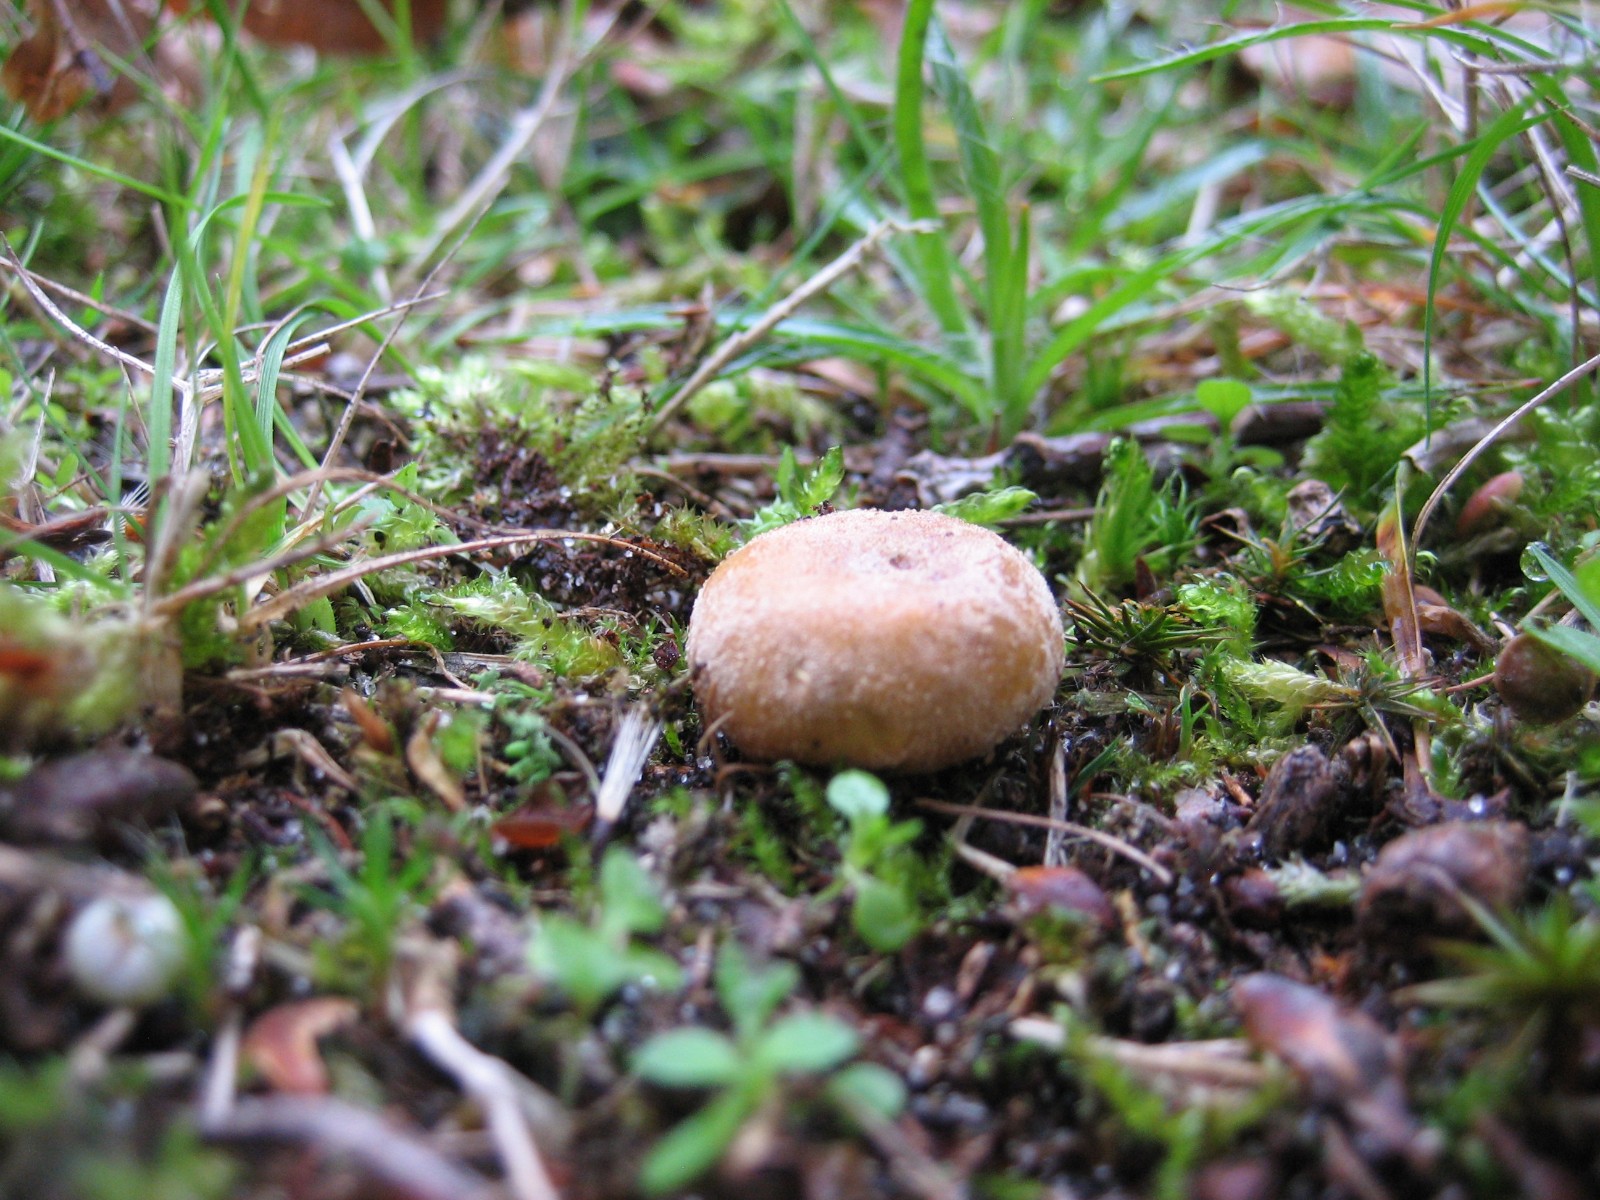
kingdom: Fungi
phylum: Basidiomycota
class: Agaricomycetes
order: Agaricales
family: Agaricaceae
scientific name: Agaricaceae
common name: champignonfamilien
